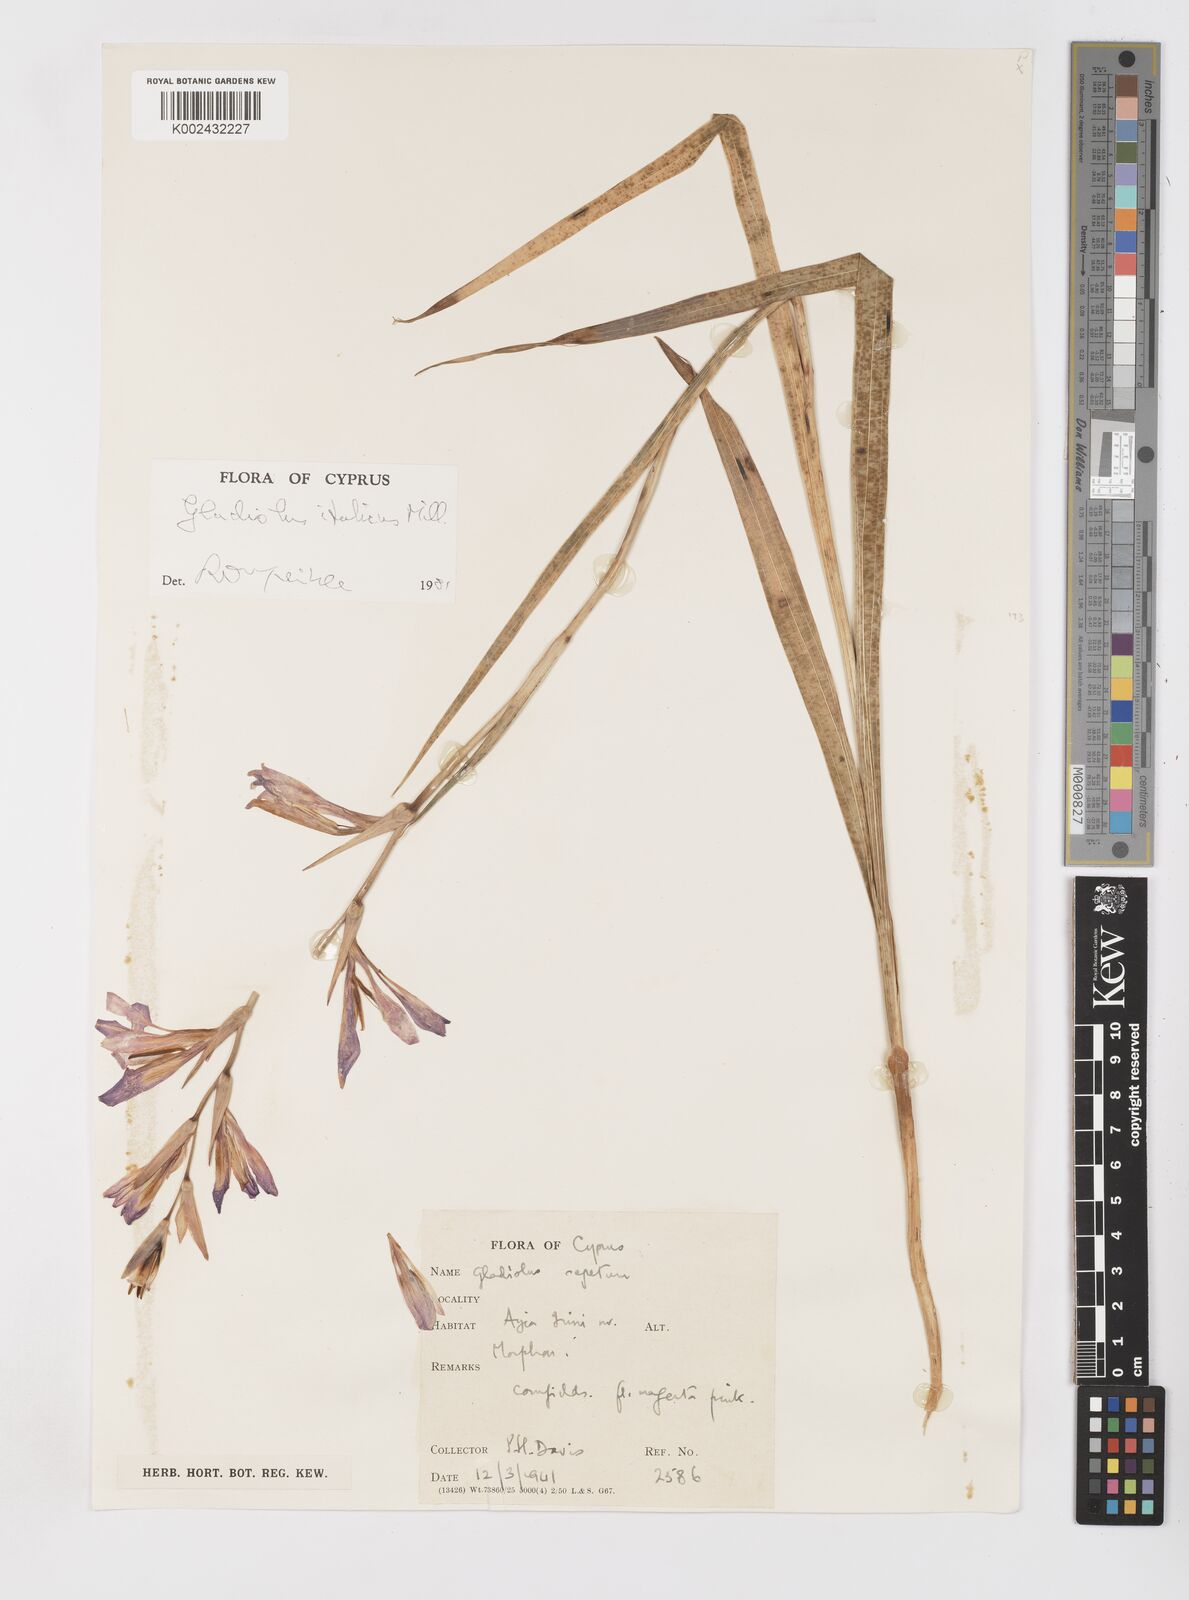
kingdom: Plantae
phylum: Tracheophyta
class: Liliopsida
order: Asparagales
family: Iridaceae
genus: Gladiolus
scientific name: Gladiolus italicus
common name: Field gladiolus
